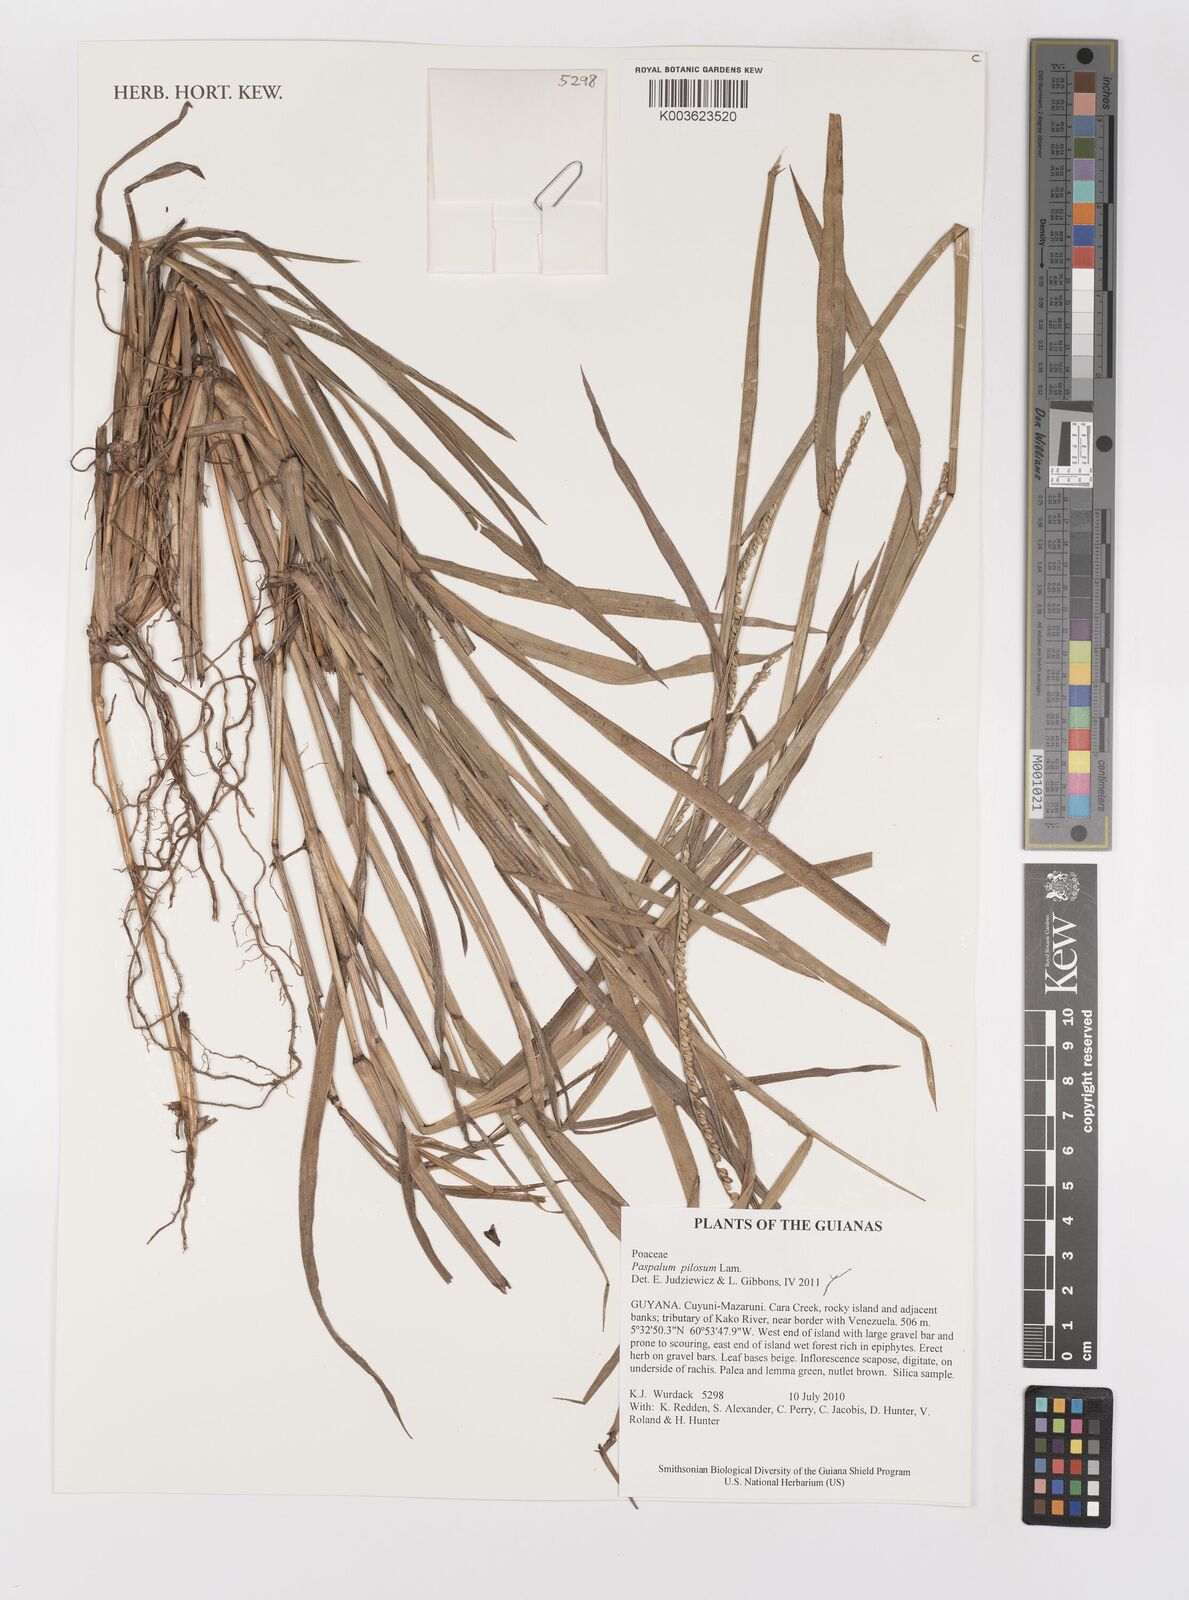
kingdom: Plantae
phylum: Tracheophyta
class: Liliopsida
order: Poales
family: Poaceae
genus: Paspalum
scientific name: Paspalum pilosum
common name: Crowngrass
